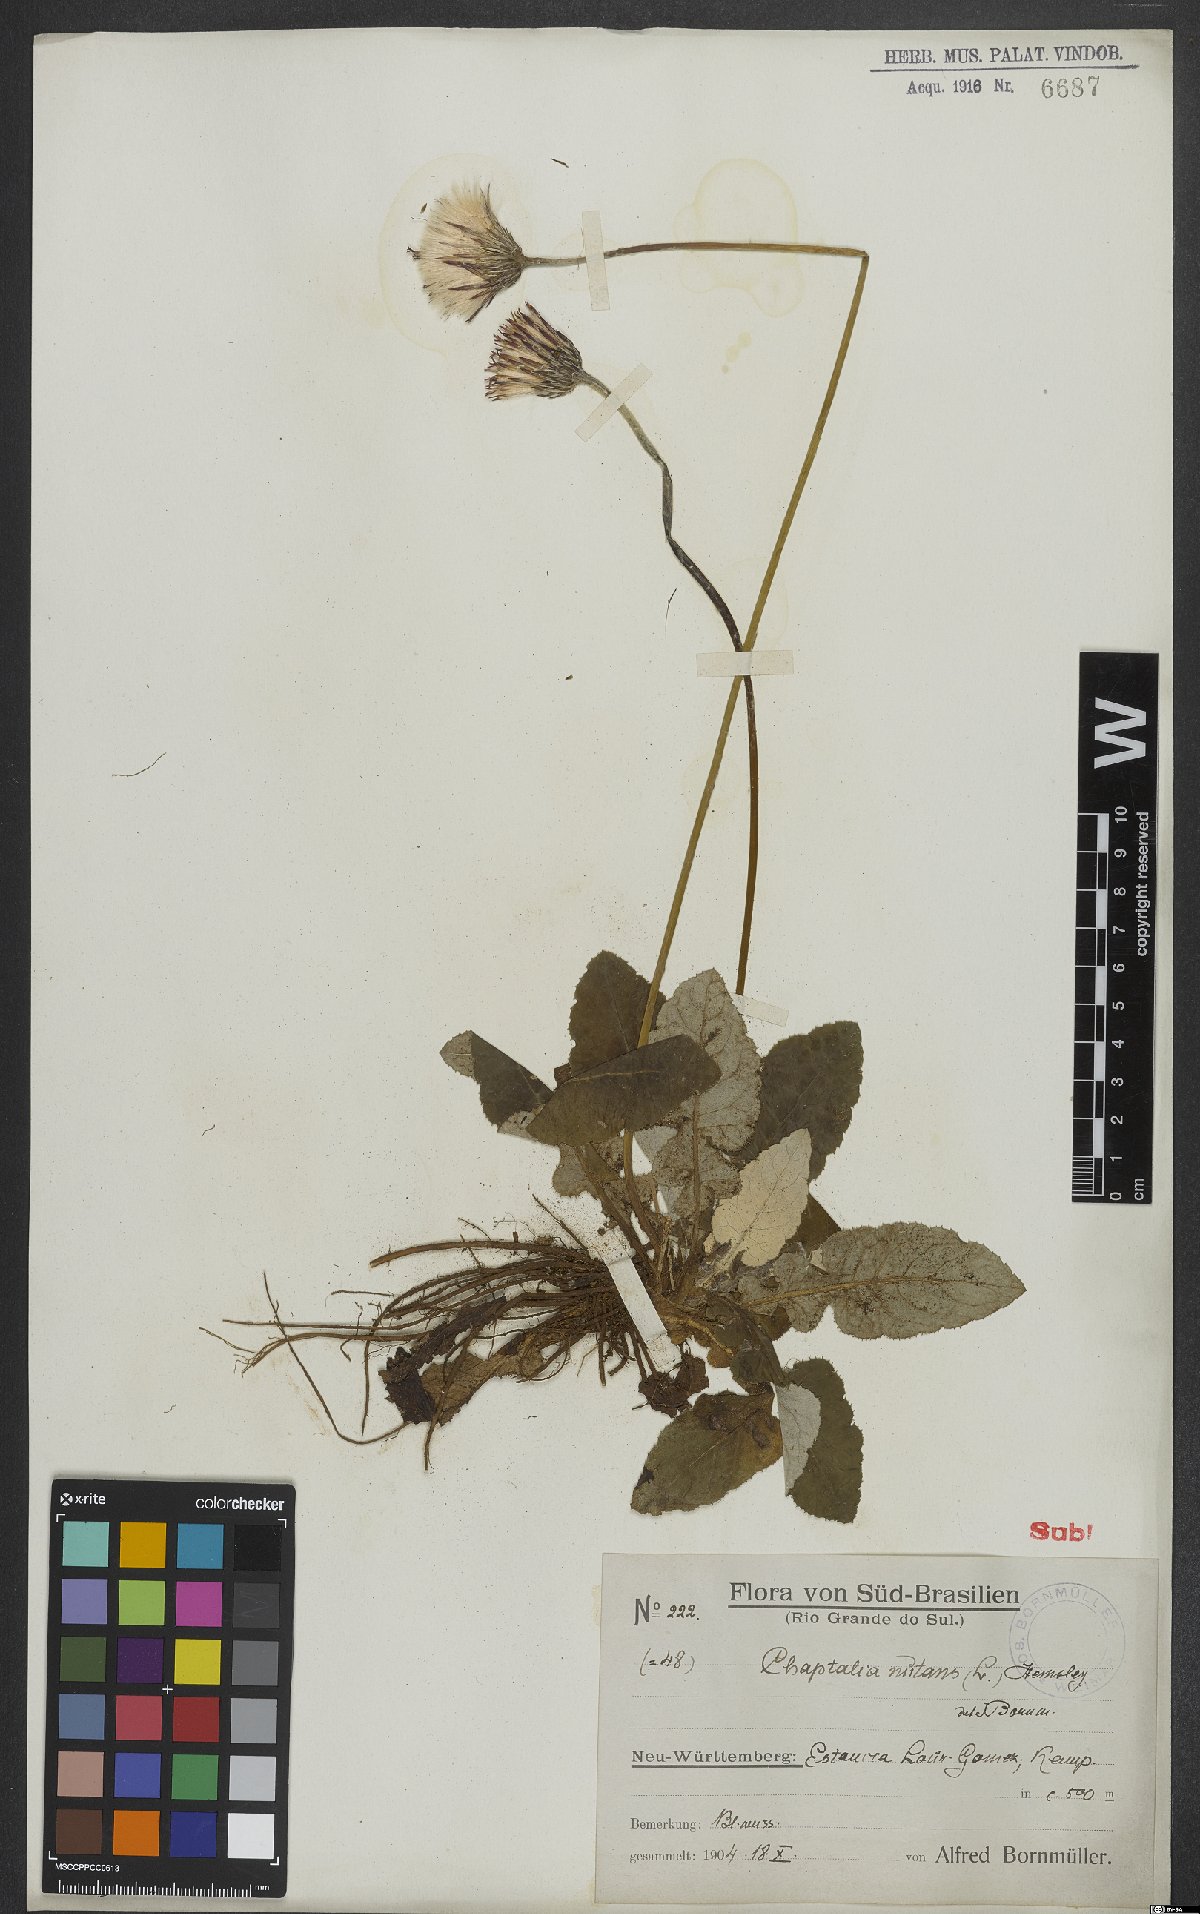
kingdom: Plantae
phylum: Tracheophyta
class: Magnoliopsida
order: Asterales
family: Asteraceae
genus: Chaptalia
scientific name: Chaptalia nutans
